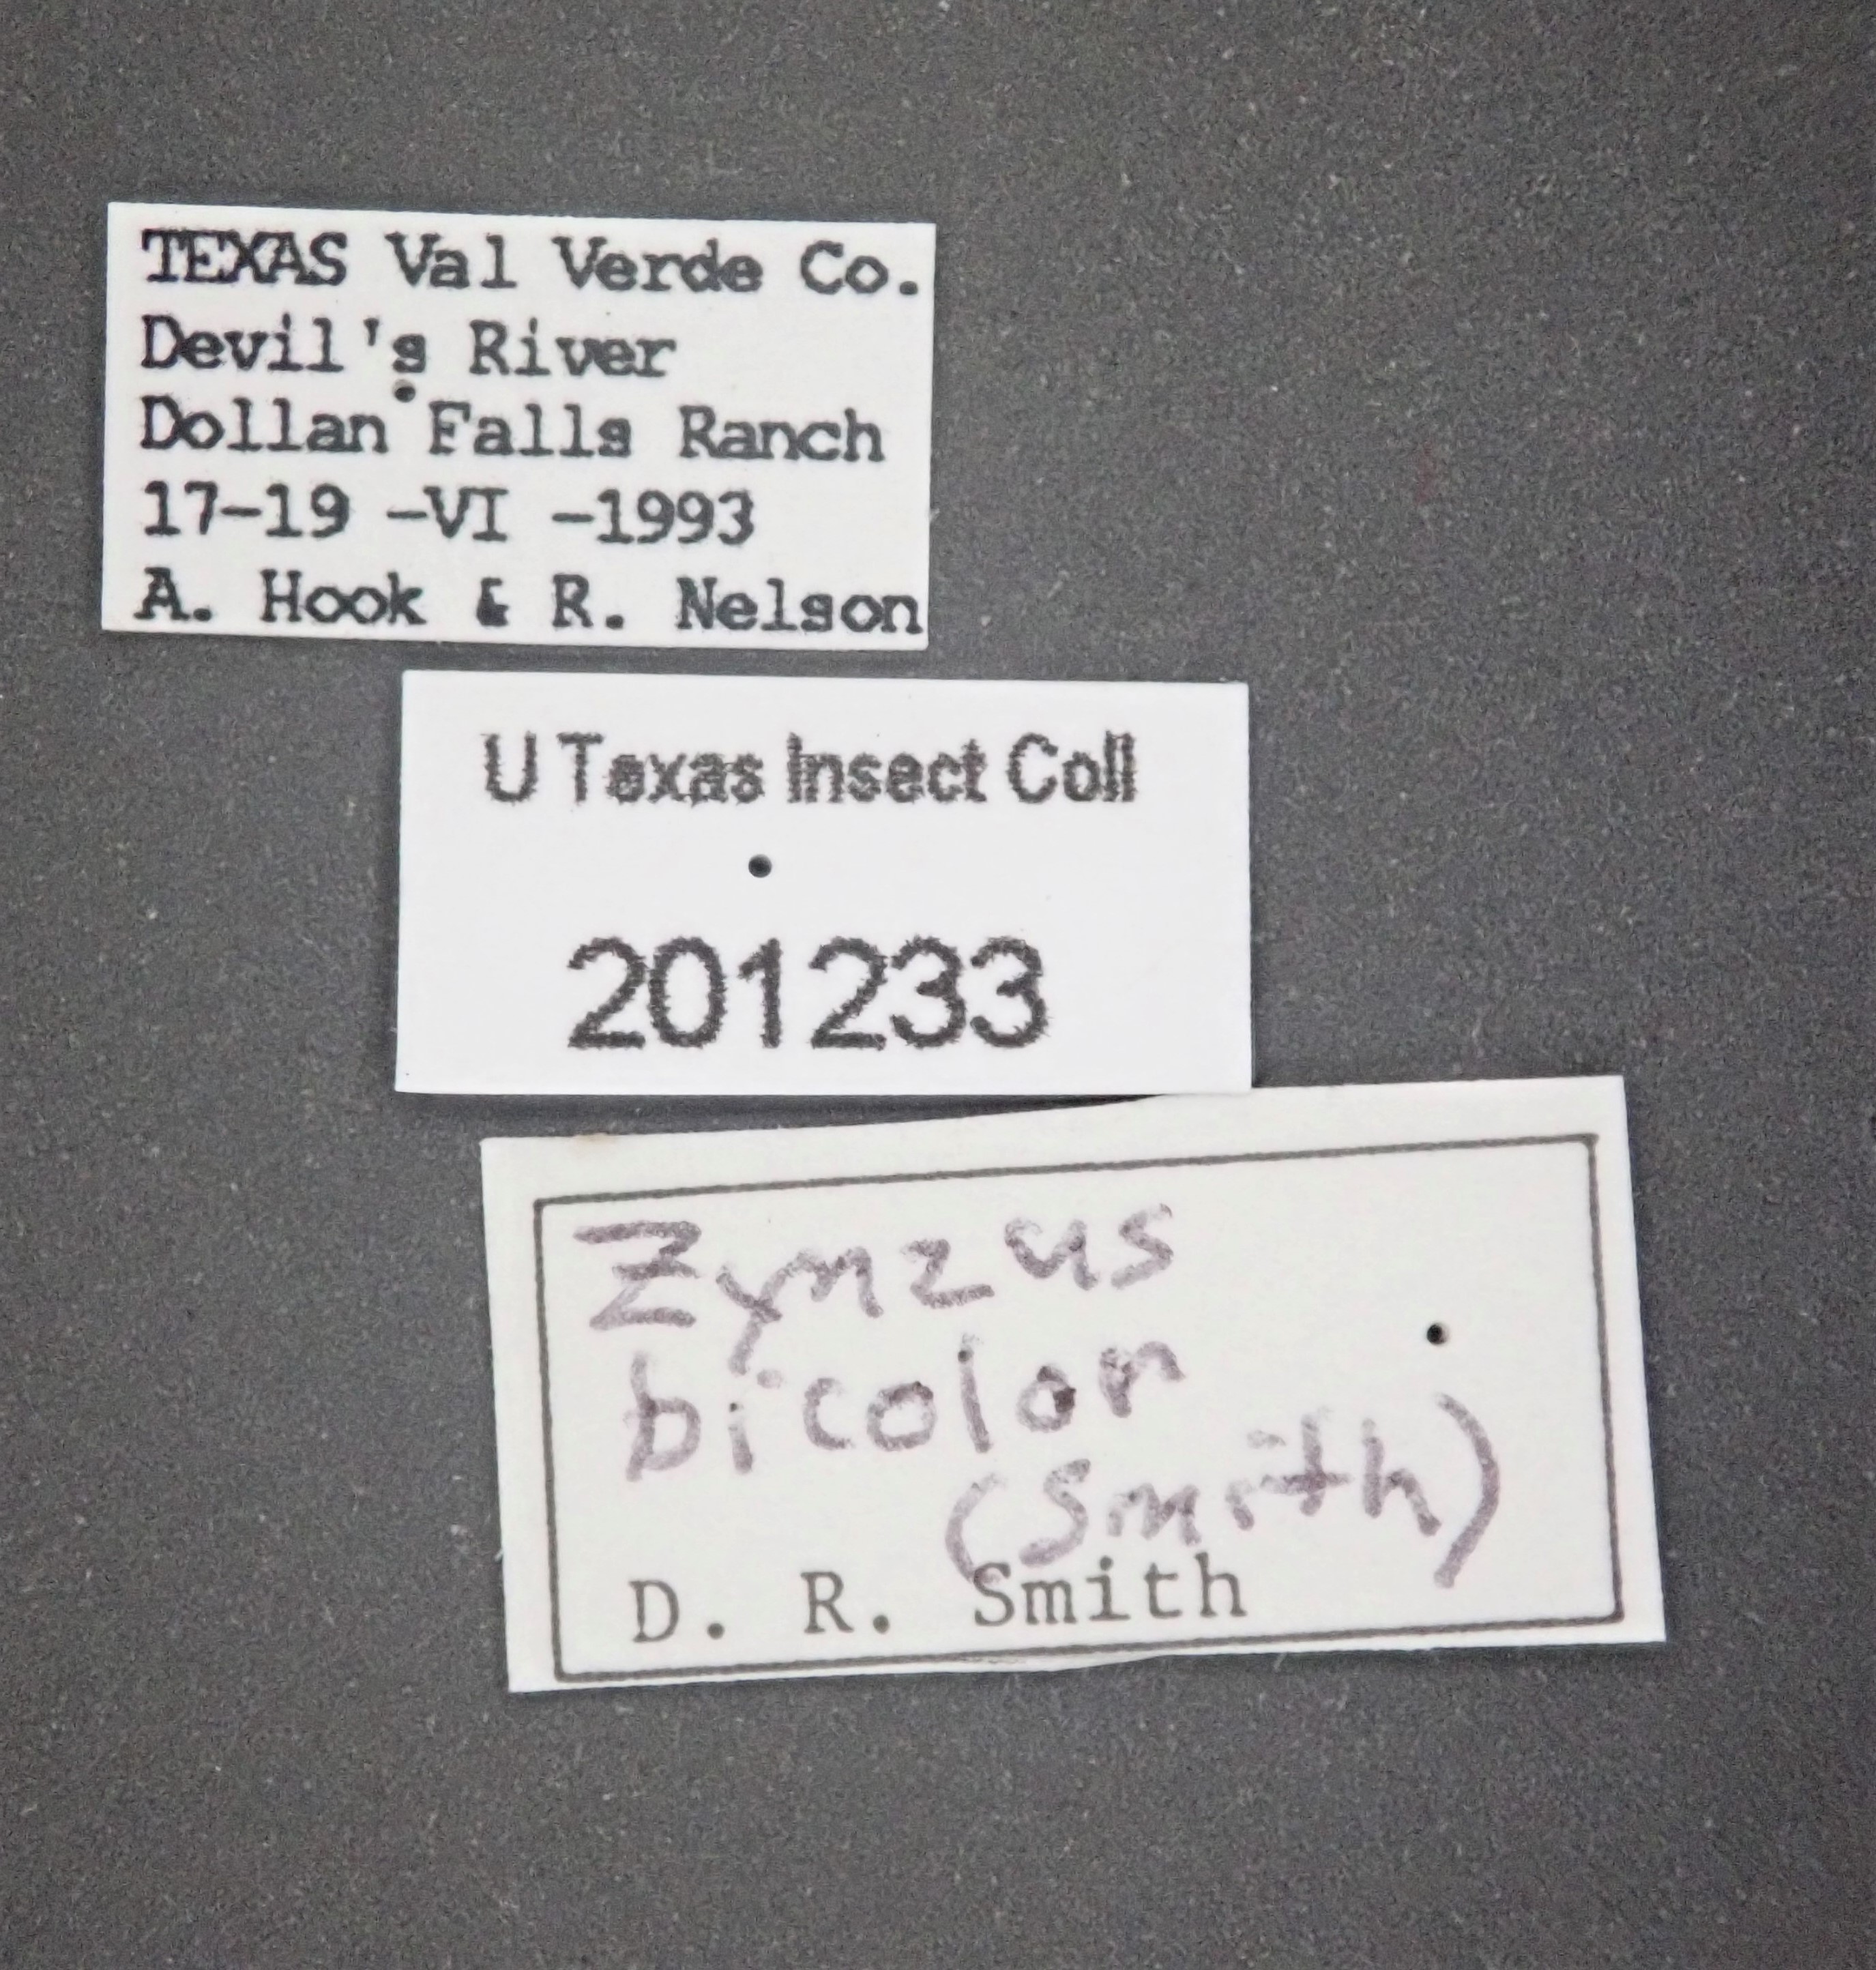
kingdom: Animalia
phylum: Arthropoda
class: Insecta
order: Hymenoptera
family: Argidae
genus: Zynzus
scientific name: Zynzus
